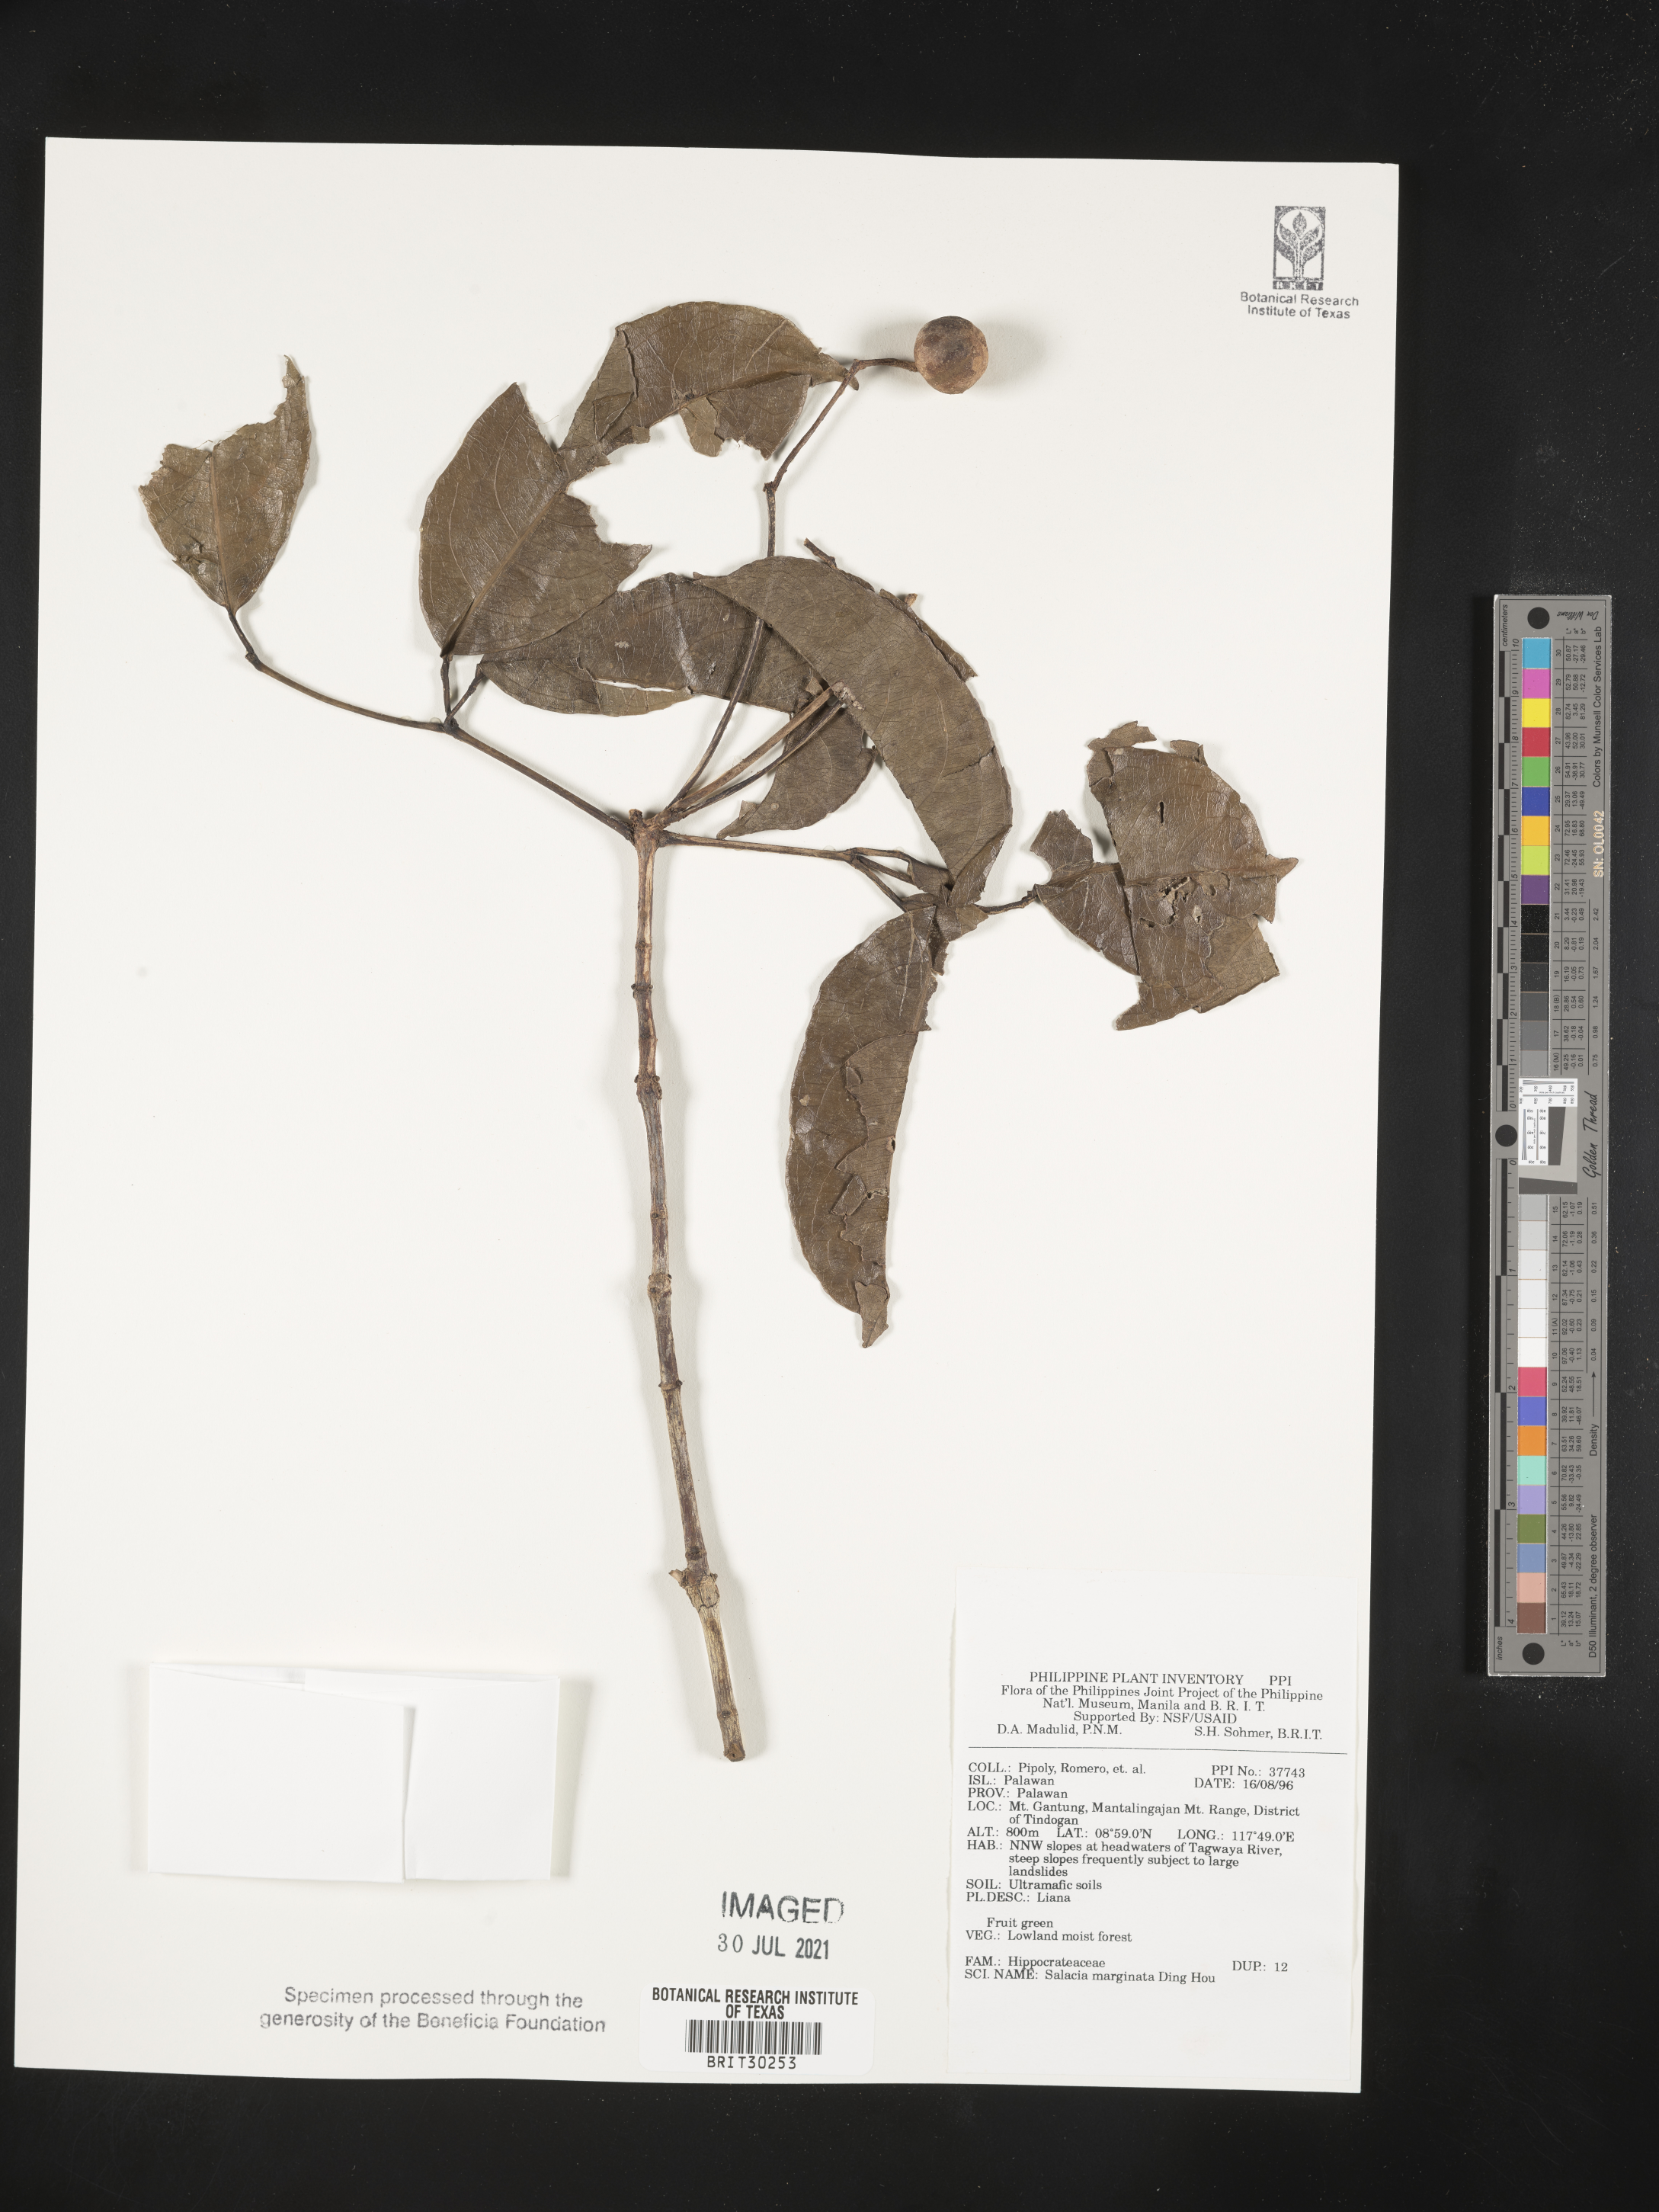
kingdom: Plantae
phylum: Tracheophyta
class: Magnoliopsida
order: Celastrales
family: Celastraceae
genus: Salacia
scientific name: Salacia marginata
